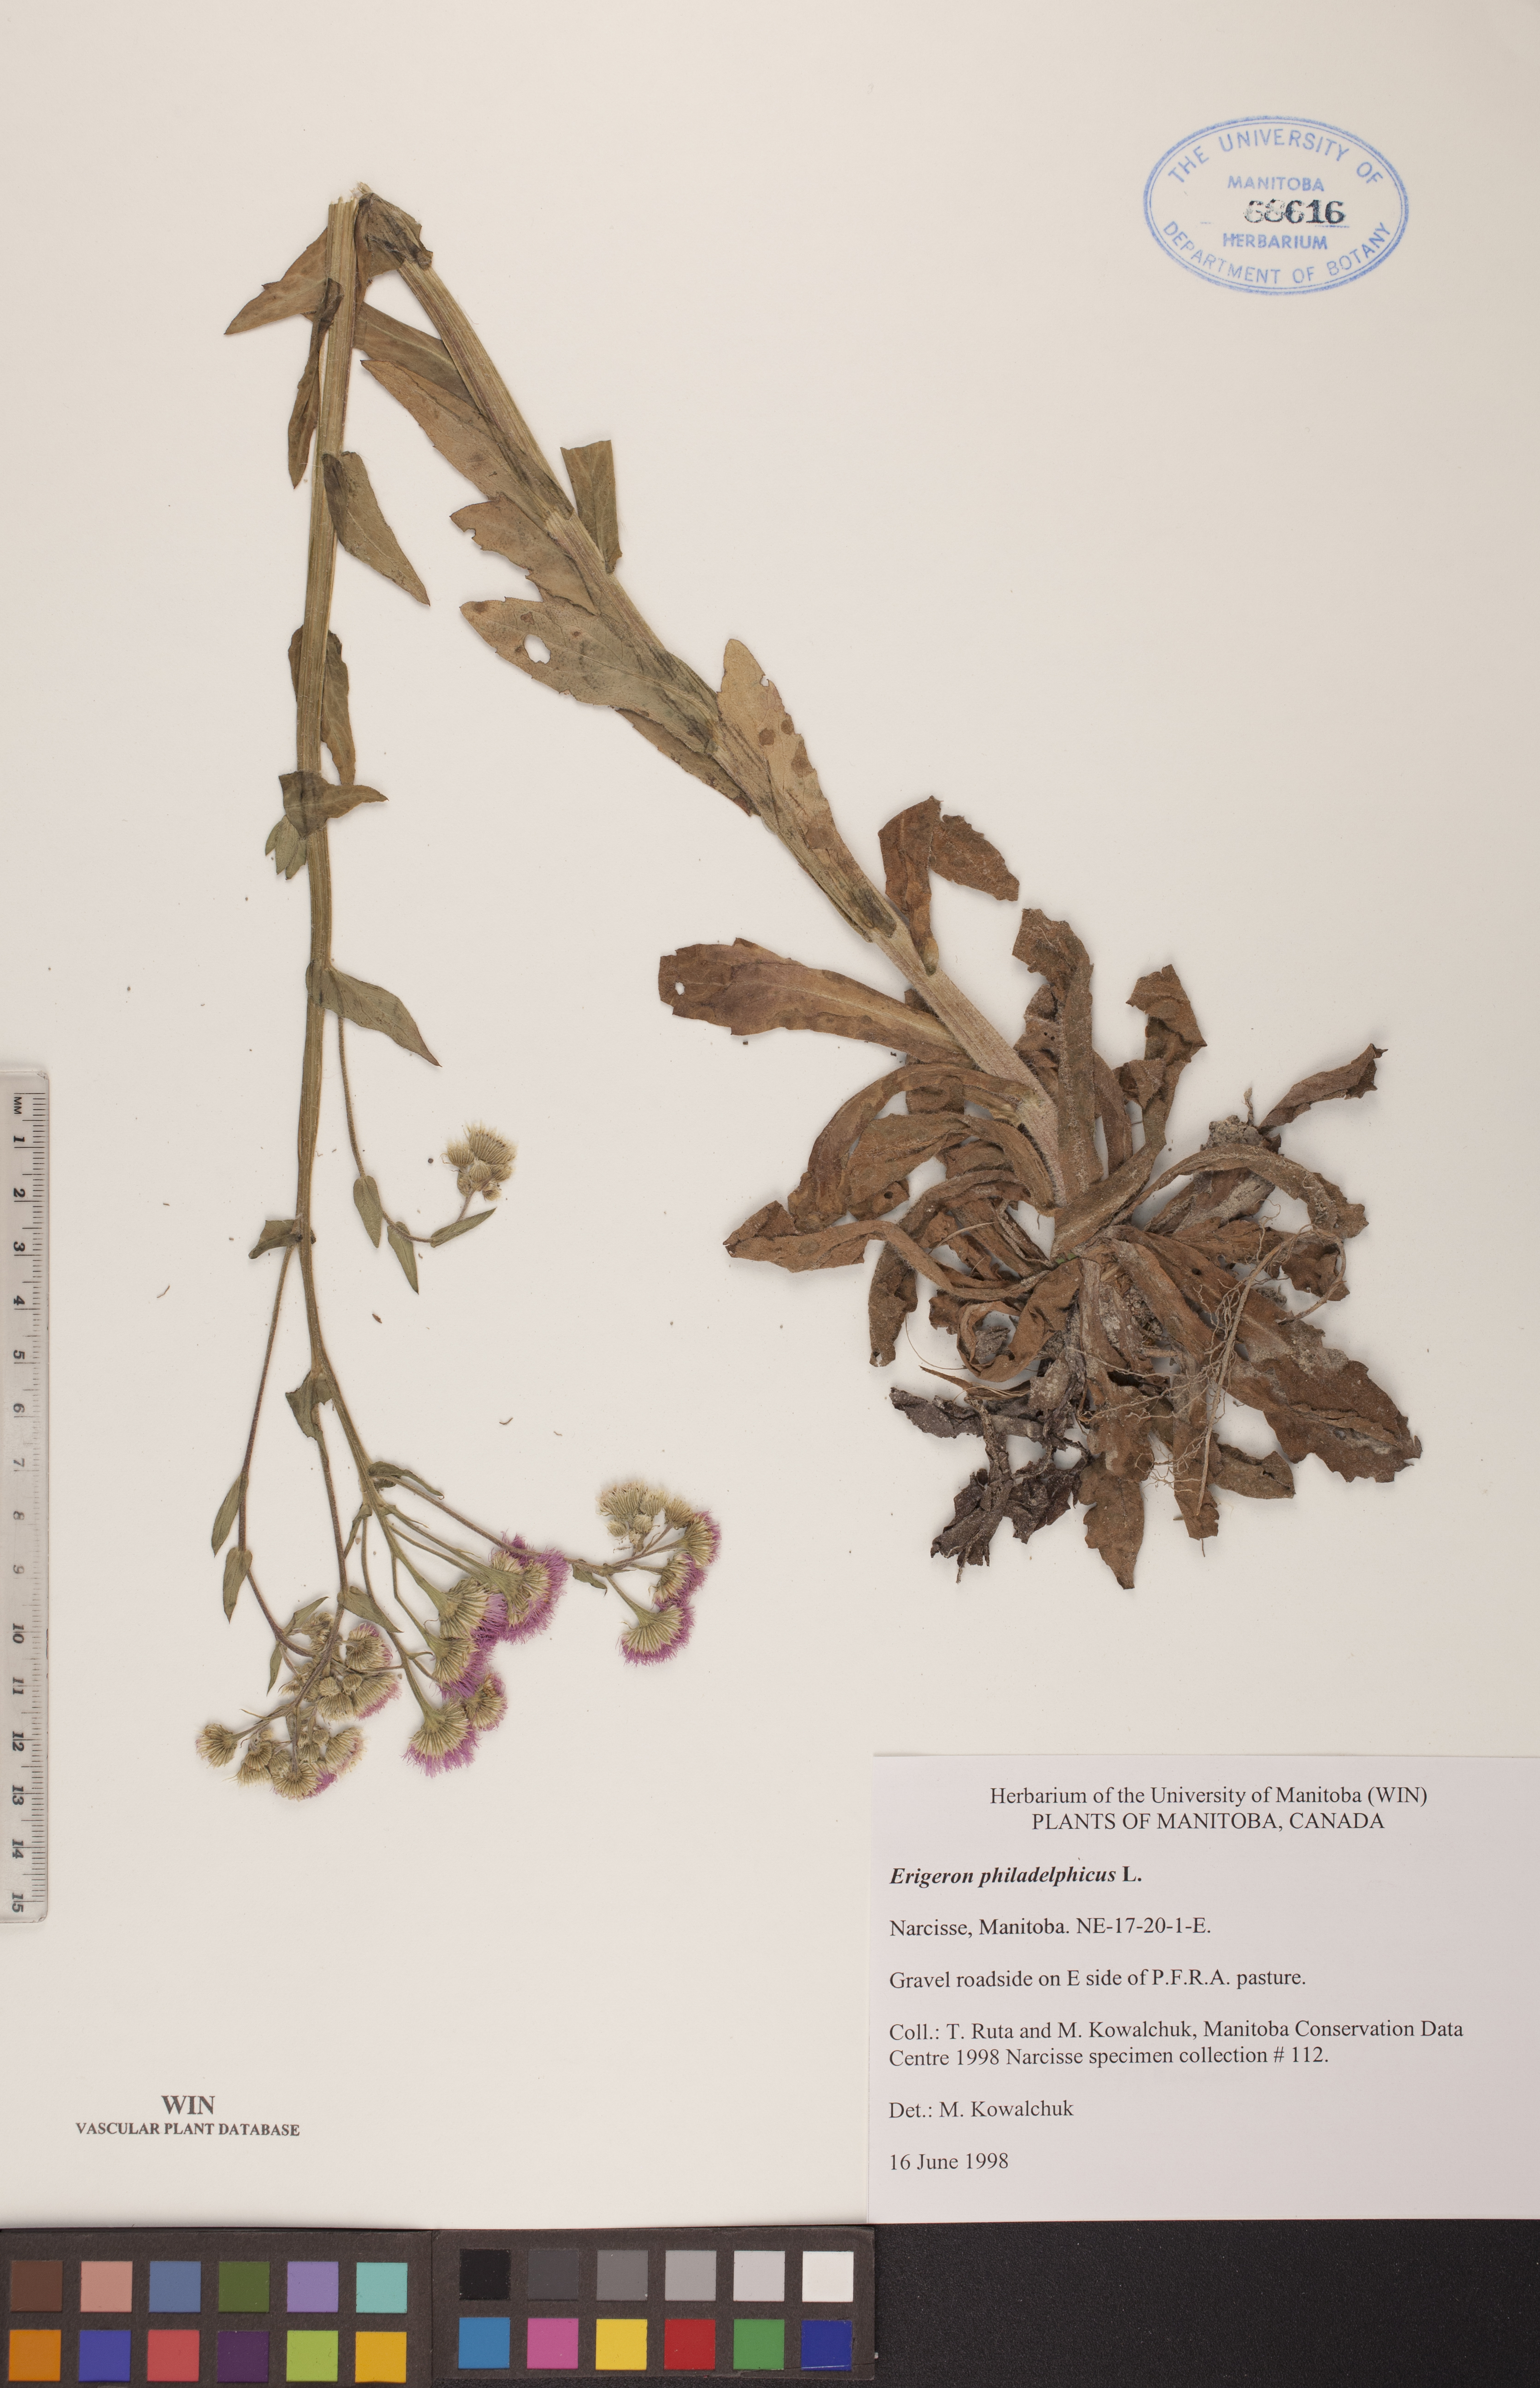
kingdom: Plantae
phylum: Tracheophyta
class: Magnoliopsida
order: Asterales
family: Asteraceae
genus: Erigeron
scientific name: Erigeron philadelphicus
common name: Robin's-plantain
